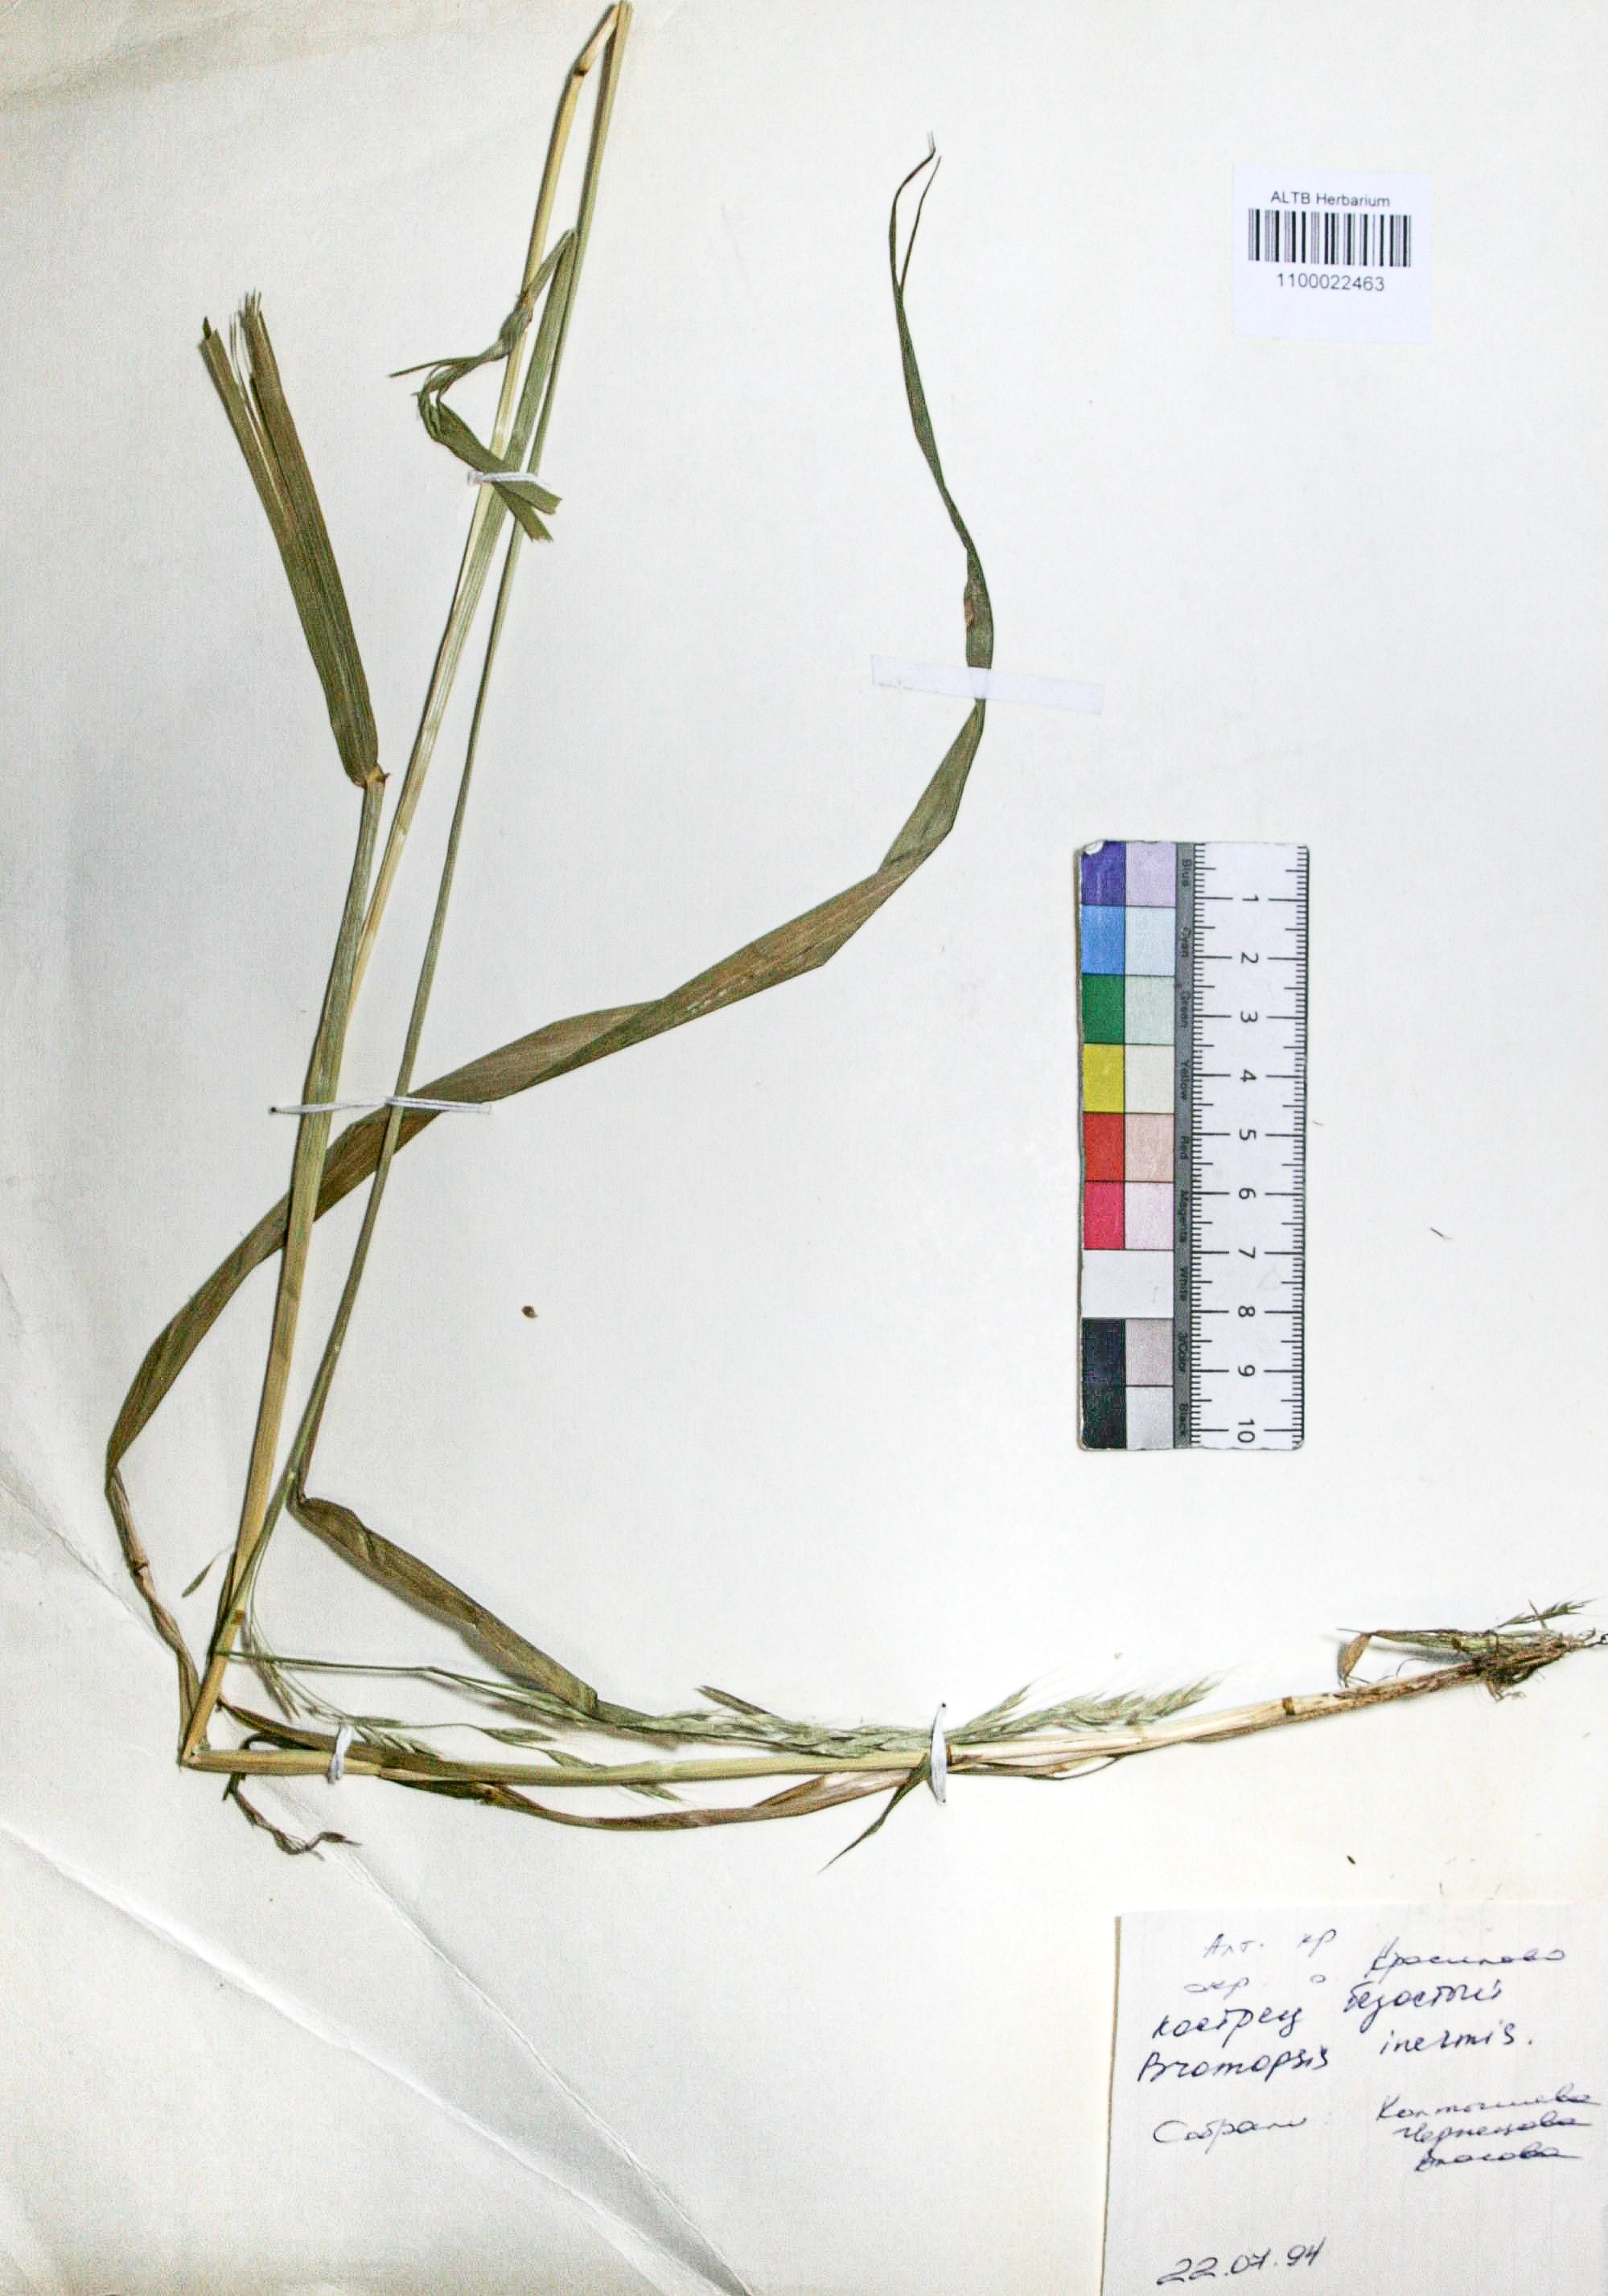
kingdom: Plantae
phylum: Tracheophyta
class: Liliopsida
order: Poales
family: Poaceae
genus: Lolium
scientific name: Lolium giganteum
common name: Giant fescue
